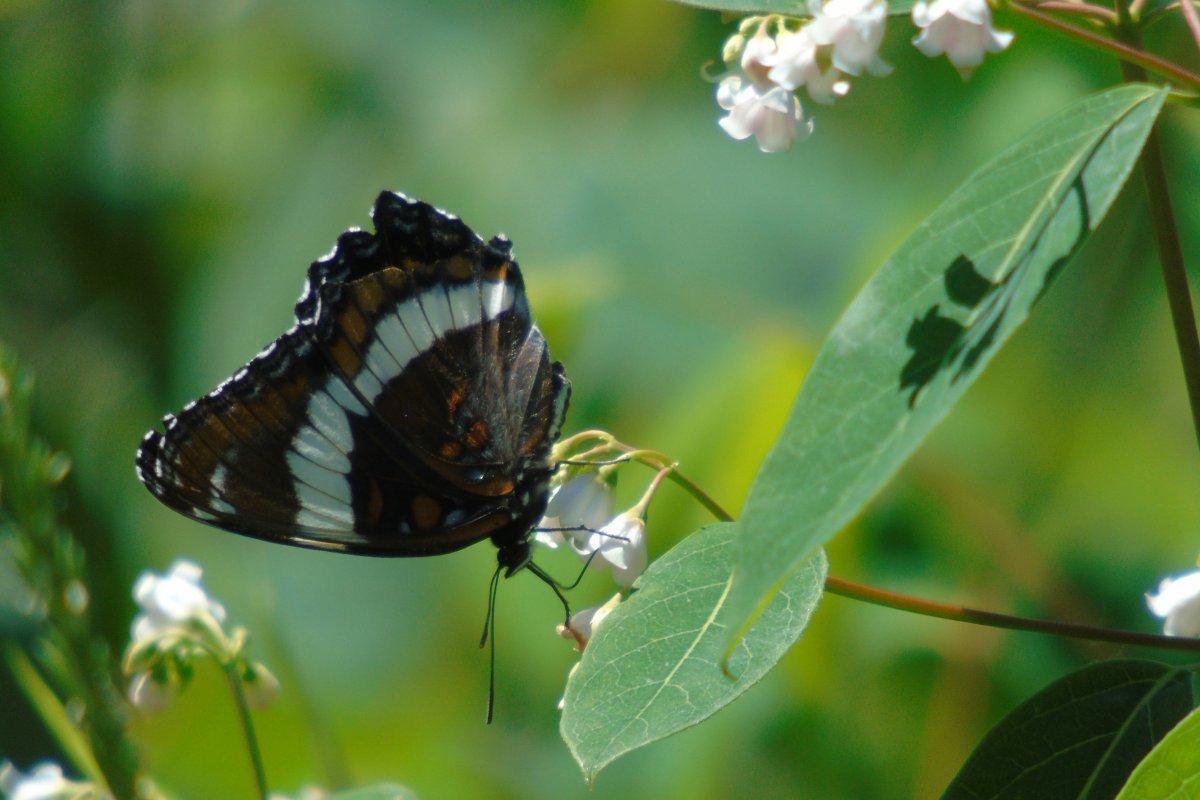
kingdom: Animalia
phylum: Arthropoda
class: Insecta
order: Lepidoptera
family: Nymphalidae
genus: Limenitis
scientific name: Limenitis arthemis
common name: Red-spotted Admiral
